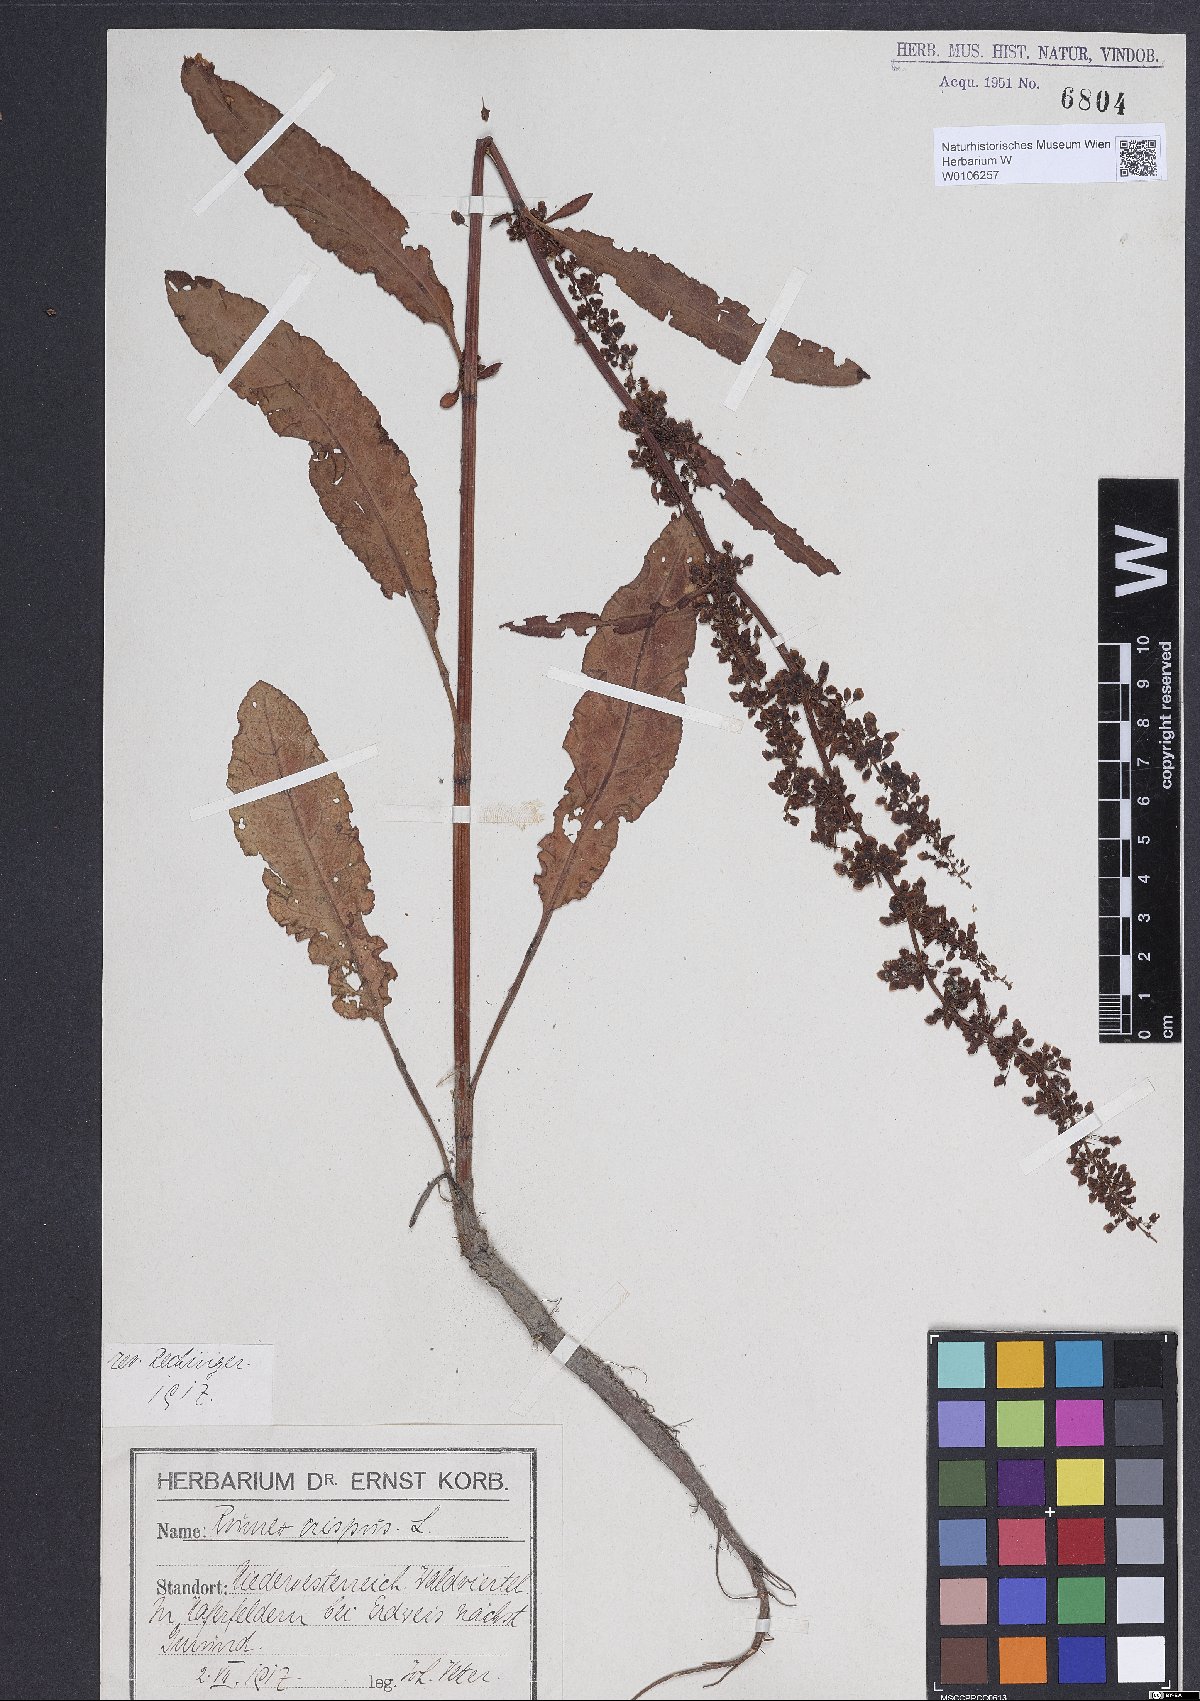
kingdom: Plantae
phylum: Tracheophyta
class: Magnoliopsida
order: Caryophyllales
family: Polygonaceae
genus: Rumex
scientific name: Rumex crispus
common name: Curled dock
